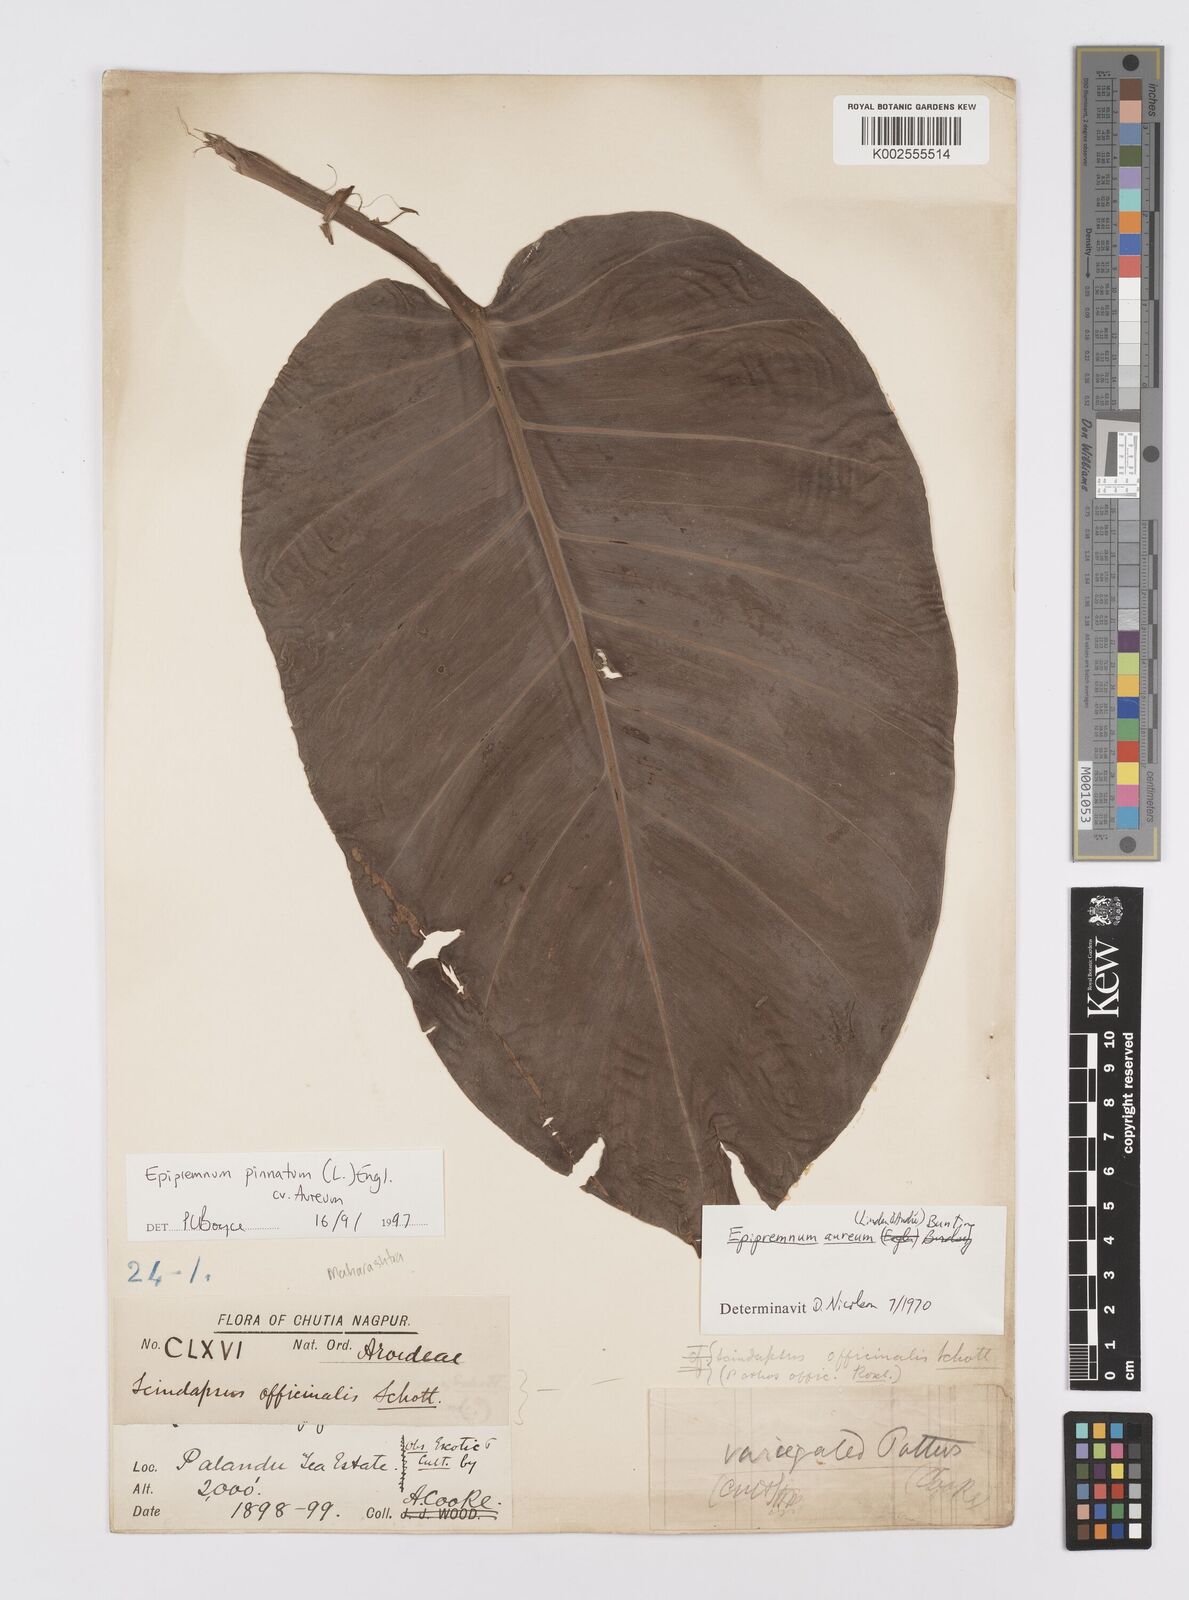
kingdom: Plantae
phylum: Tracheophyta
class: Liliopsida
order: Alismatales
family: Araceae
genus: Epipremnum
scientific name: Epipremnum aureum
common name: Golden hunter's-robe
